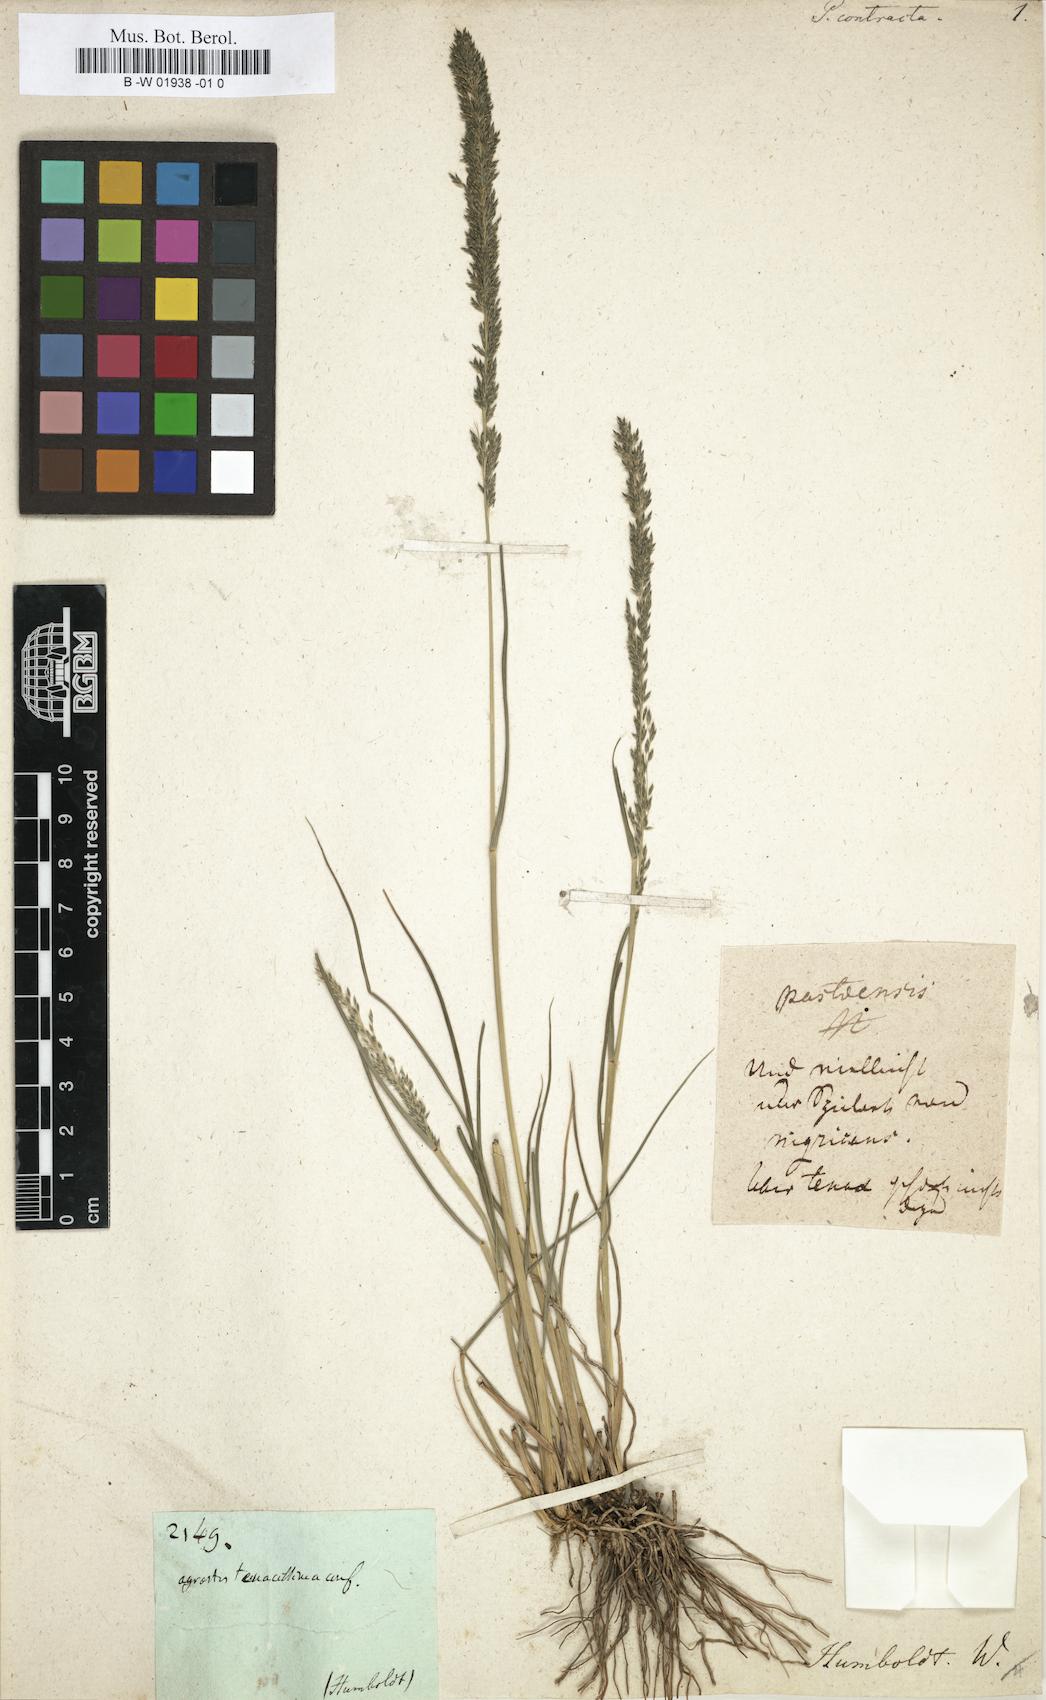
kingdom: Plantae
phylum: Tracheophyta
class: Liliopsida
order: Poales
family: Poaceae
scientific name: Poaceae
